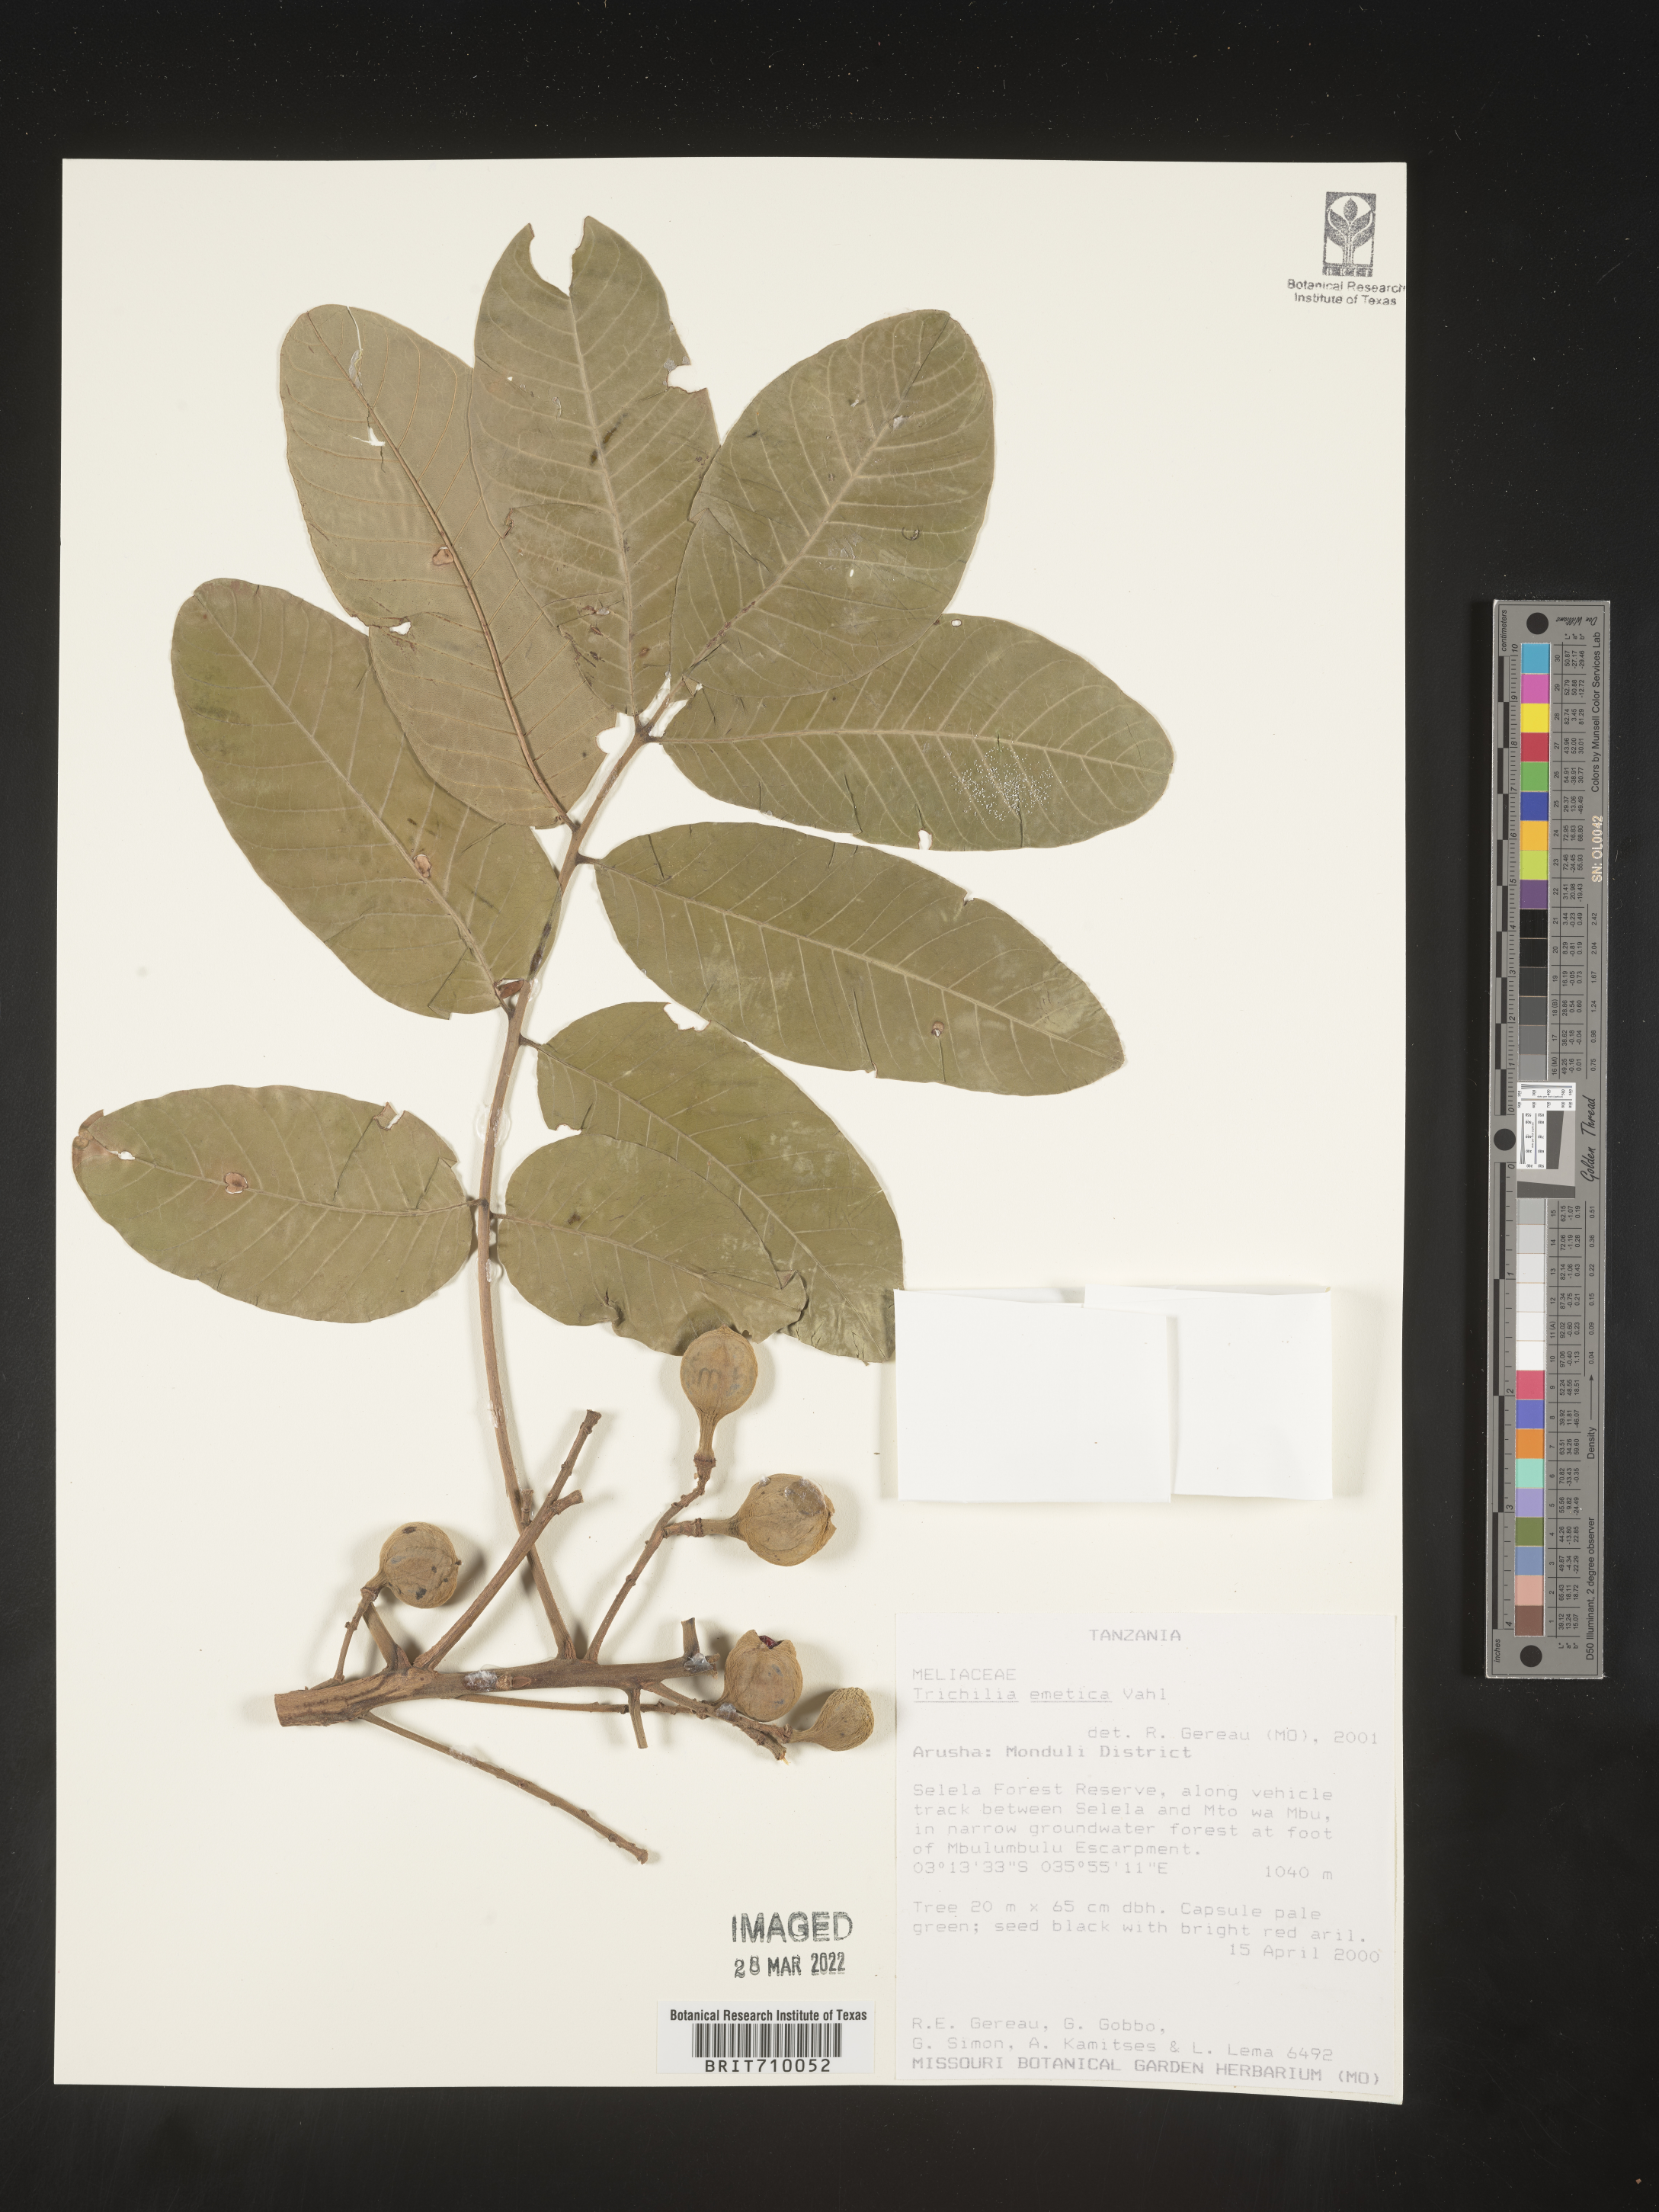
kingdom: Plantae
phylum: Tracheophyta
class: Magnoliopsida
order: Sapindales
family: Meliaceae
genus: Trichilia
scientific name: Trichilia
